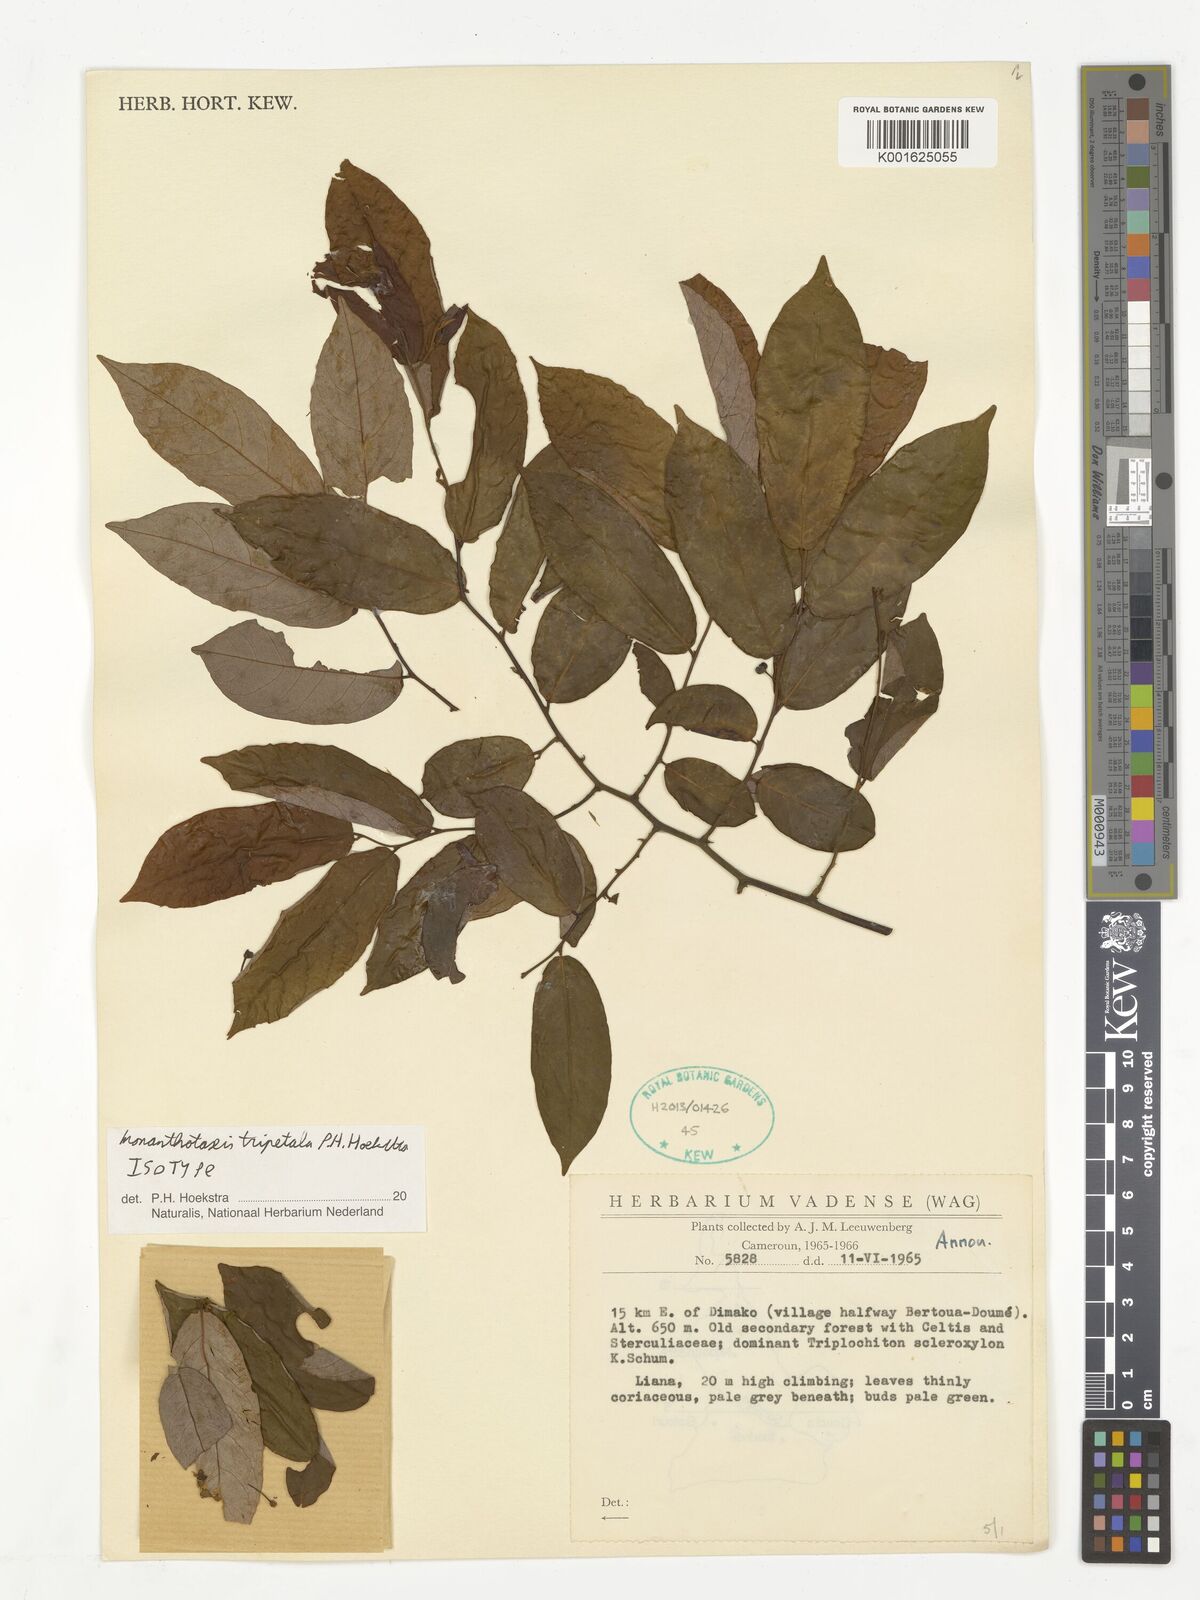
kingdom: Plantae
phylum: Tracheophyta
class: Magnoliopsida
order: Magnoliales
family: Annonaceae
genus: Monanthotaxis
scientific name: Monanthotaxis tripetala
